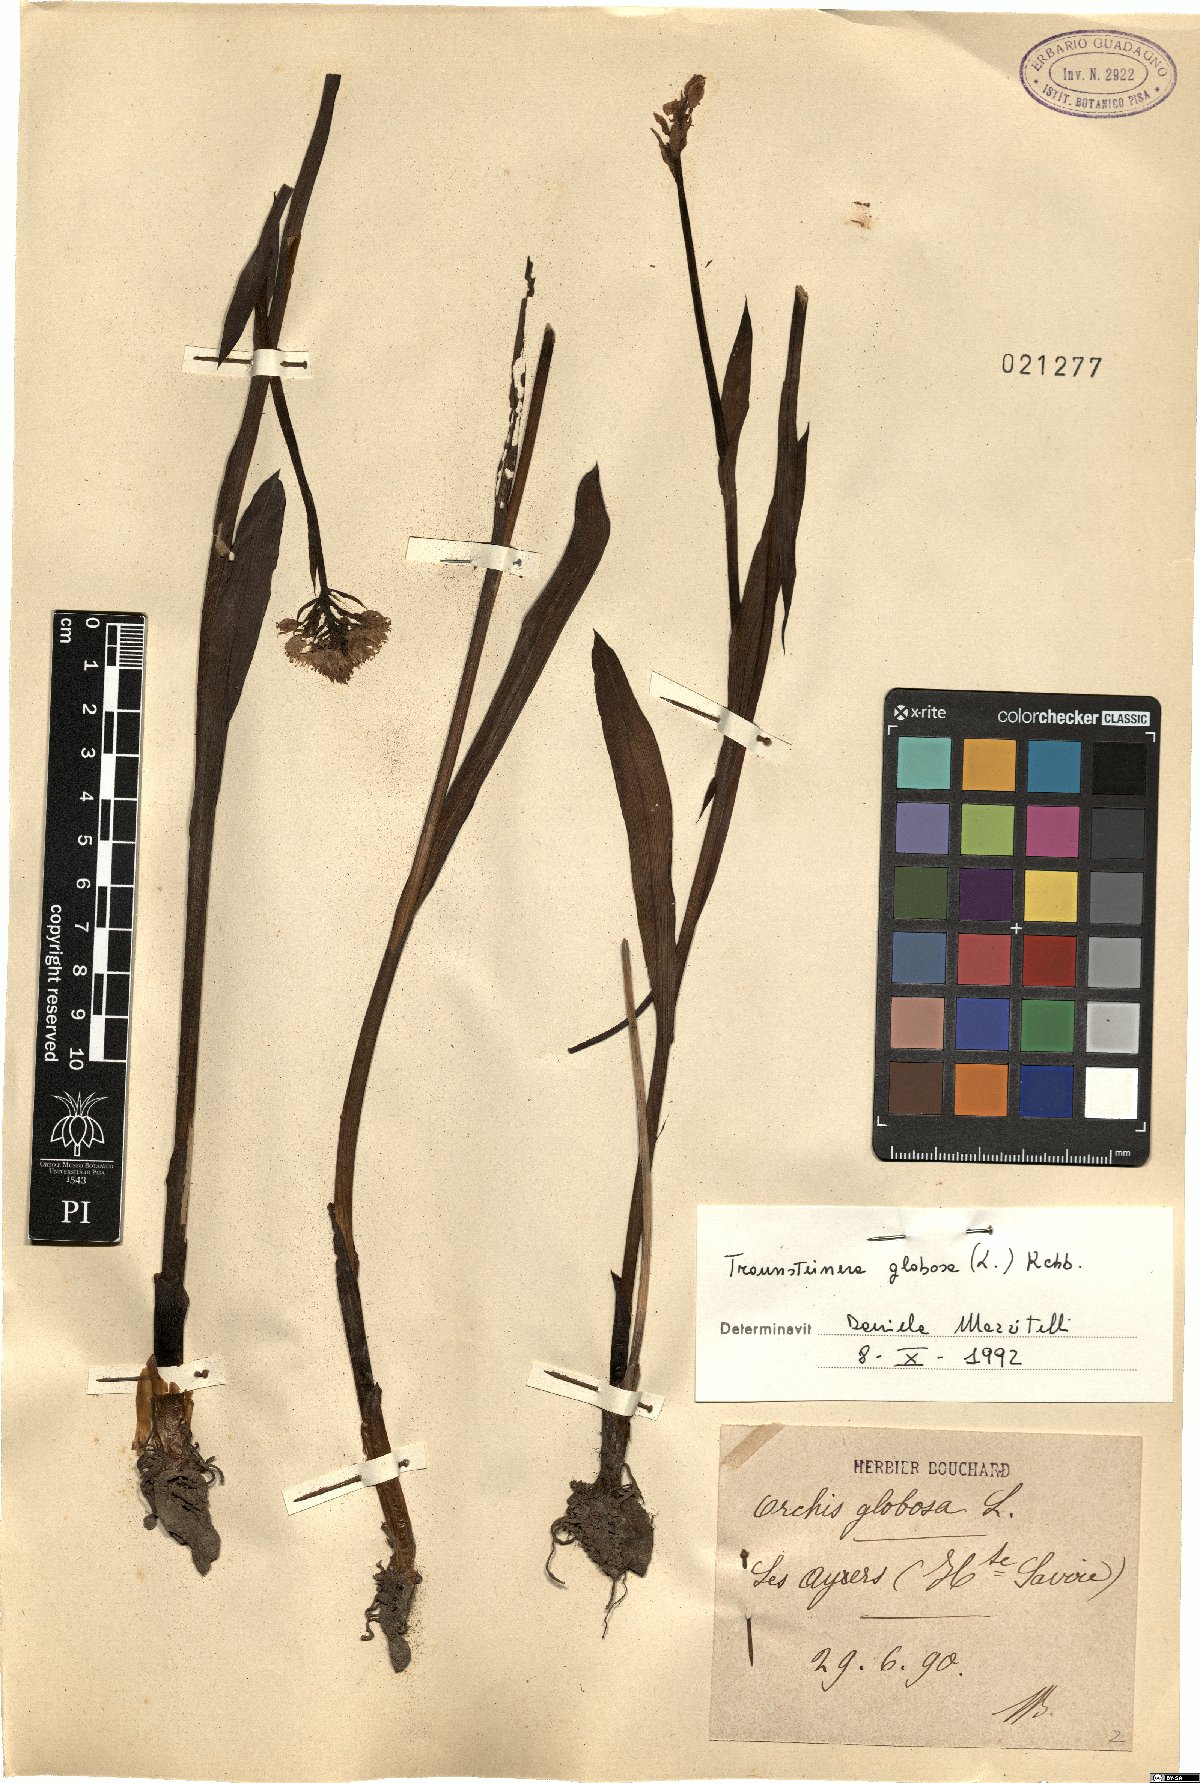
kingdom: Plantae
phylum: Tracheophyta
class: Liliopsida
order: Asparagales
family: Orchidaceae
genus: Traunsteinera
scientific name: Traunsteinera globosa
